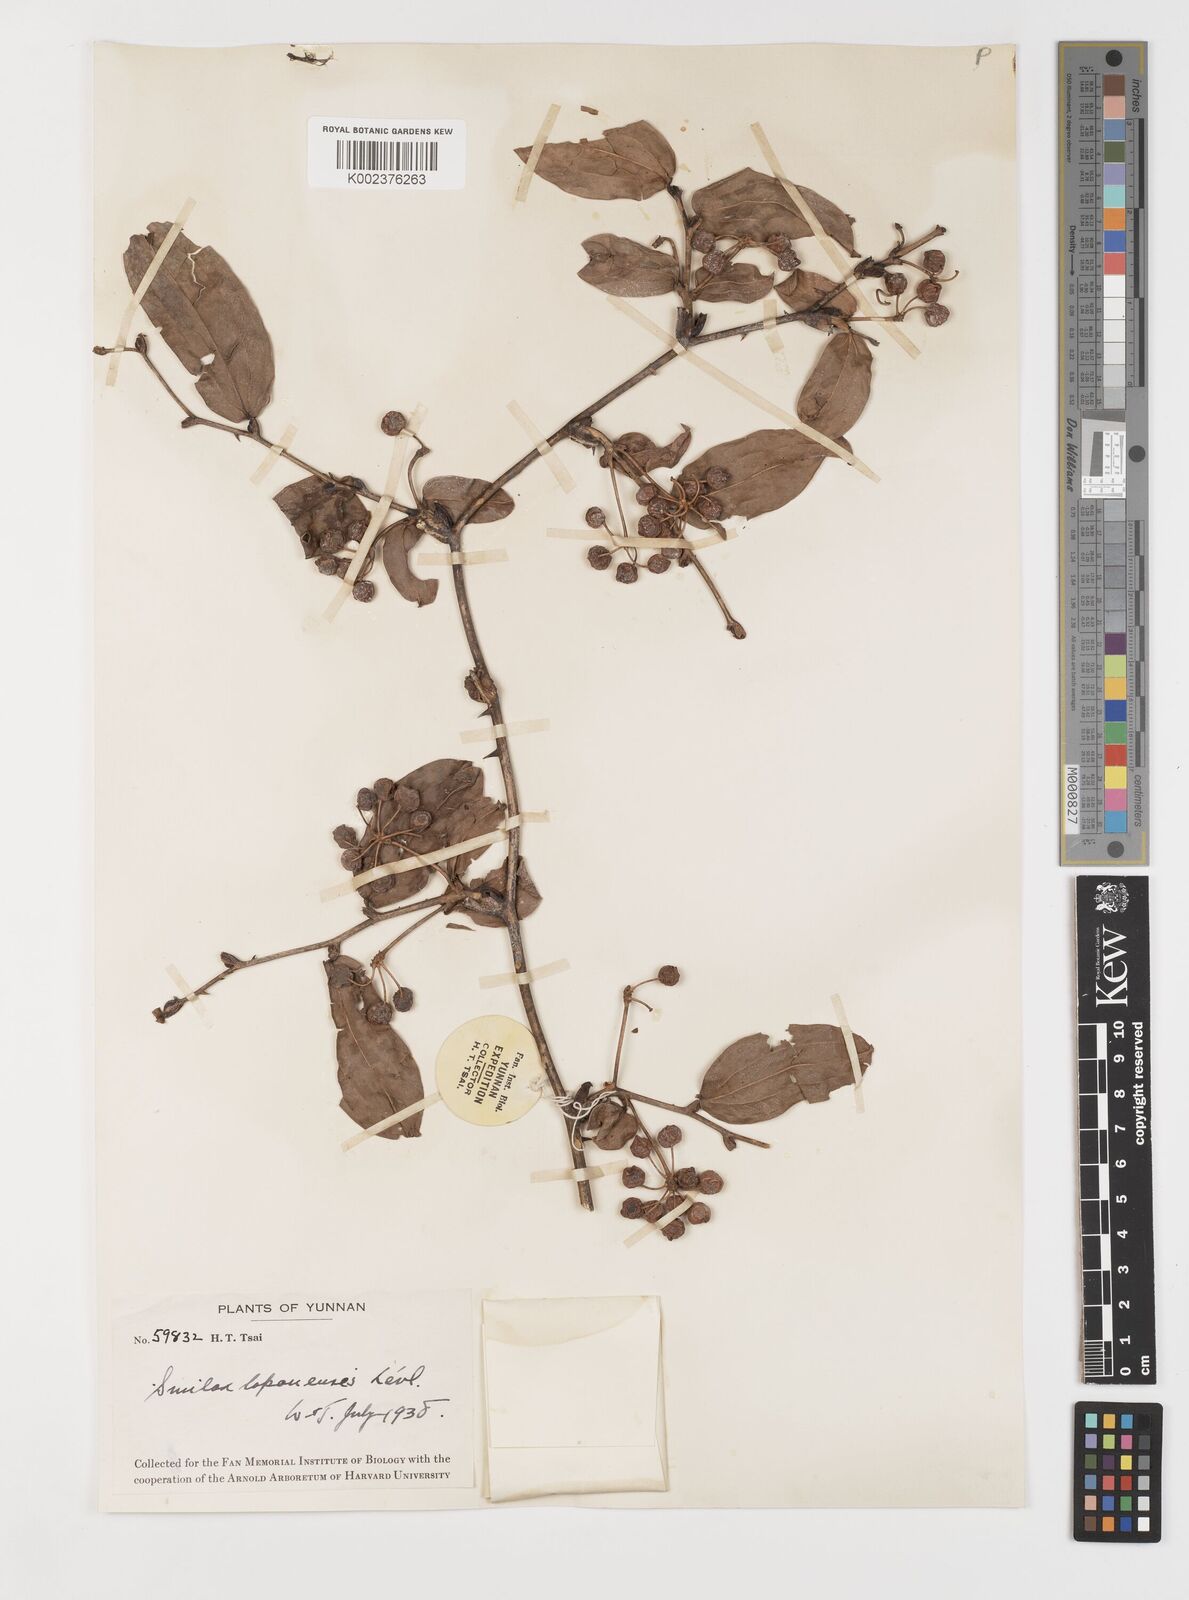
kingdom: Plantae
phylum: Tracheophyta
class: Liliopsida
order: Liliales
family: Smilacaceae
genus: Smilax
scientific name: Smilax megalantha
